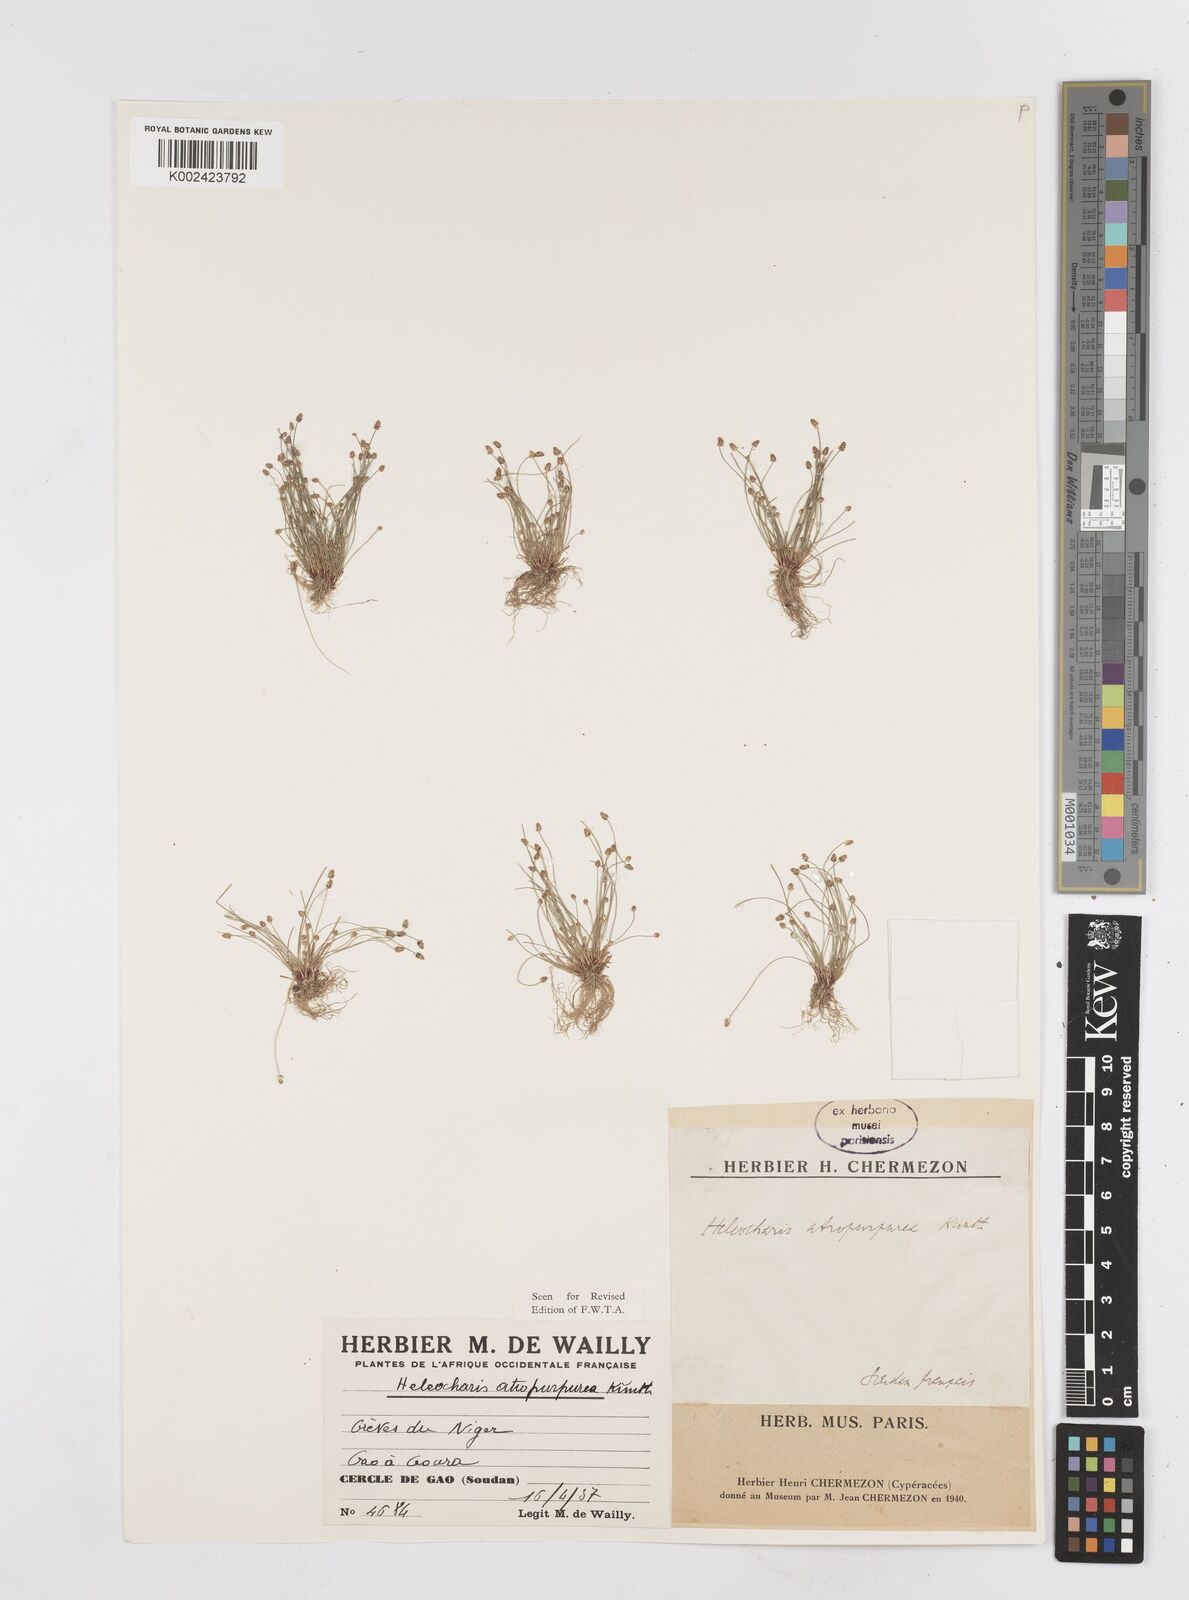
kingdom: Plantae
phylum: Tracheophyta
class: Liliopsida
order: Poales
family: Cyperaceae
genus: Eleocharis
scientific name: Eleocharis atropurpurea
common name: Purple spikerush
